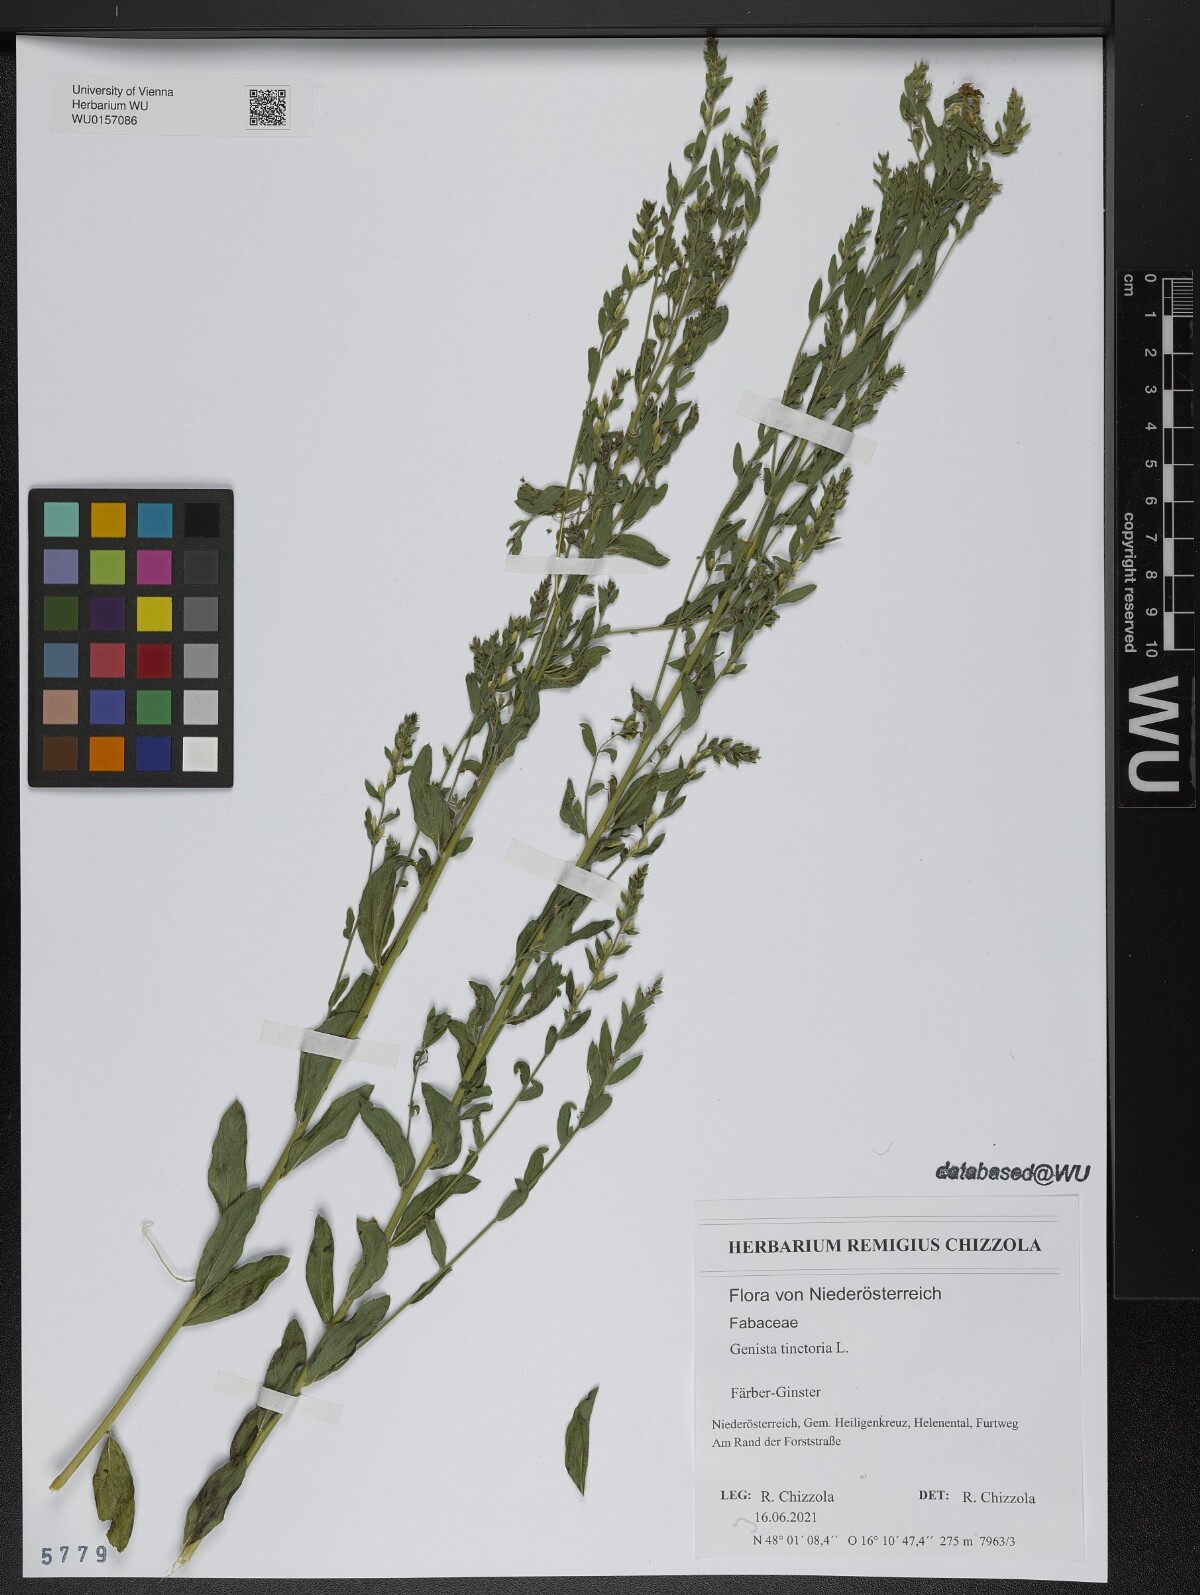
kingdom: Plantae
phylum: Tracheophyta
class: Magnoliopsida
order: Fabales
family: Fabaceae
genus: Genista
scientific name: Genista tinctoria
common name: Dyer's greenweed
